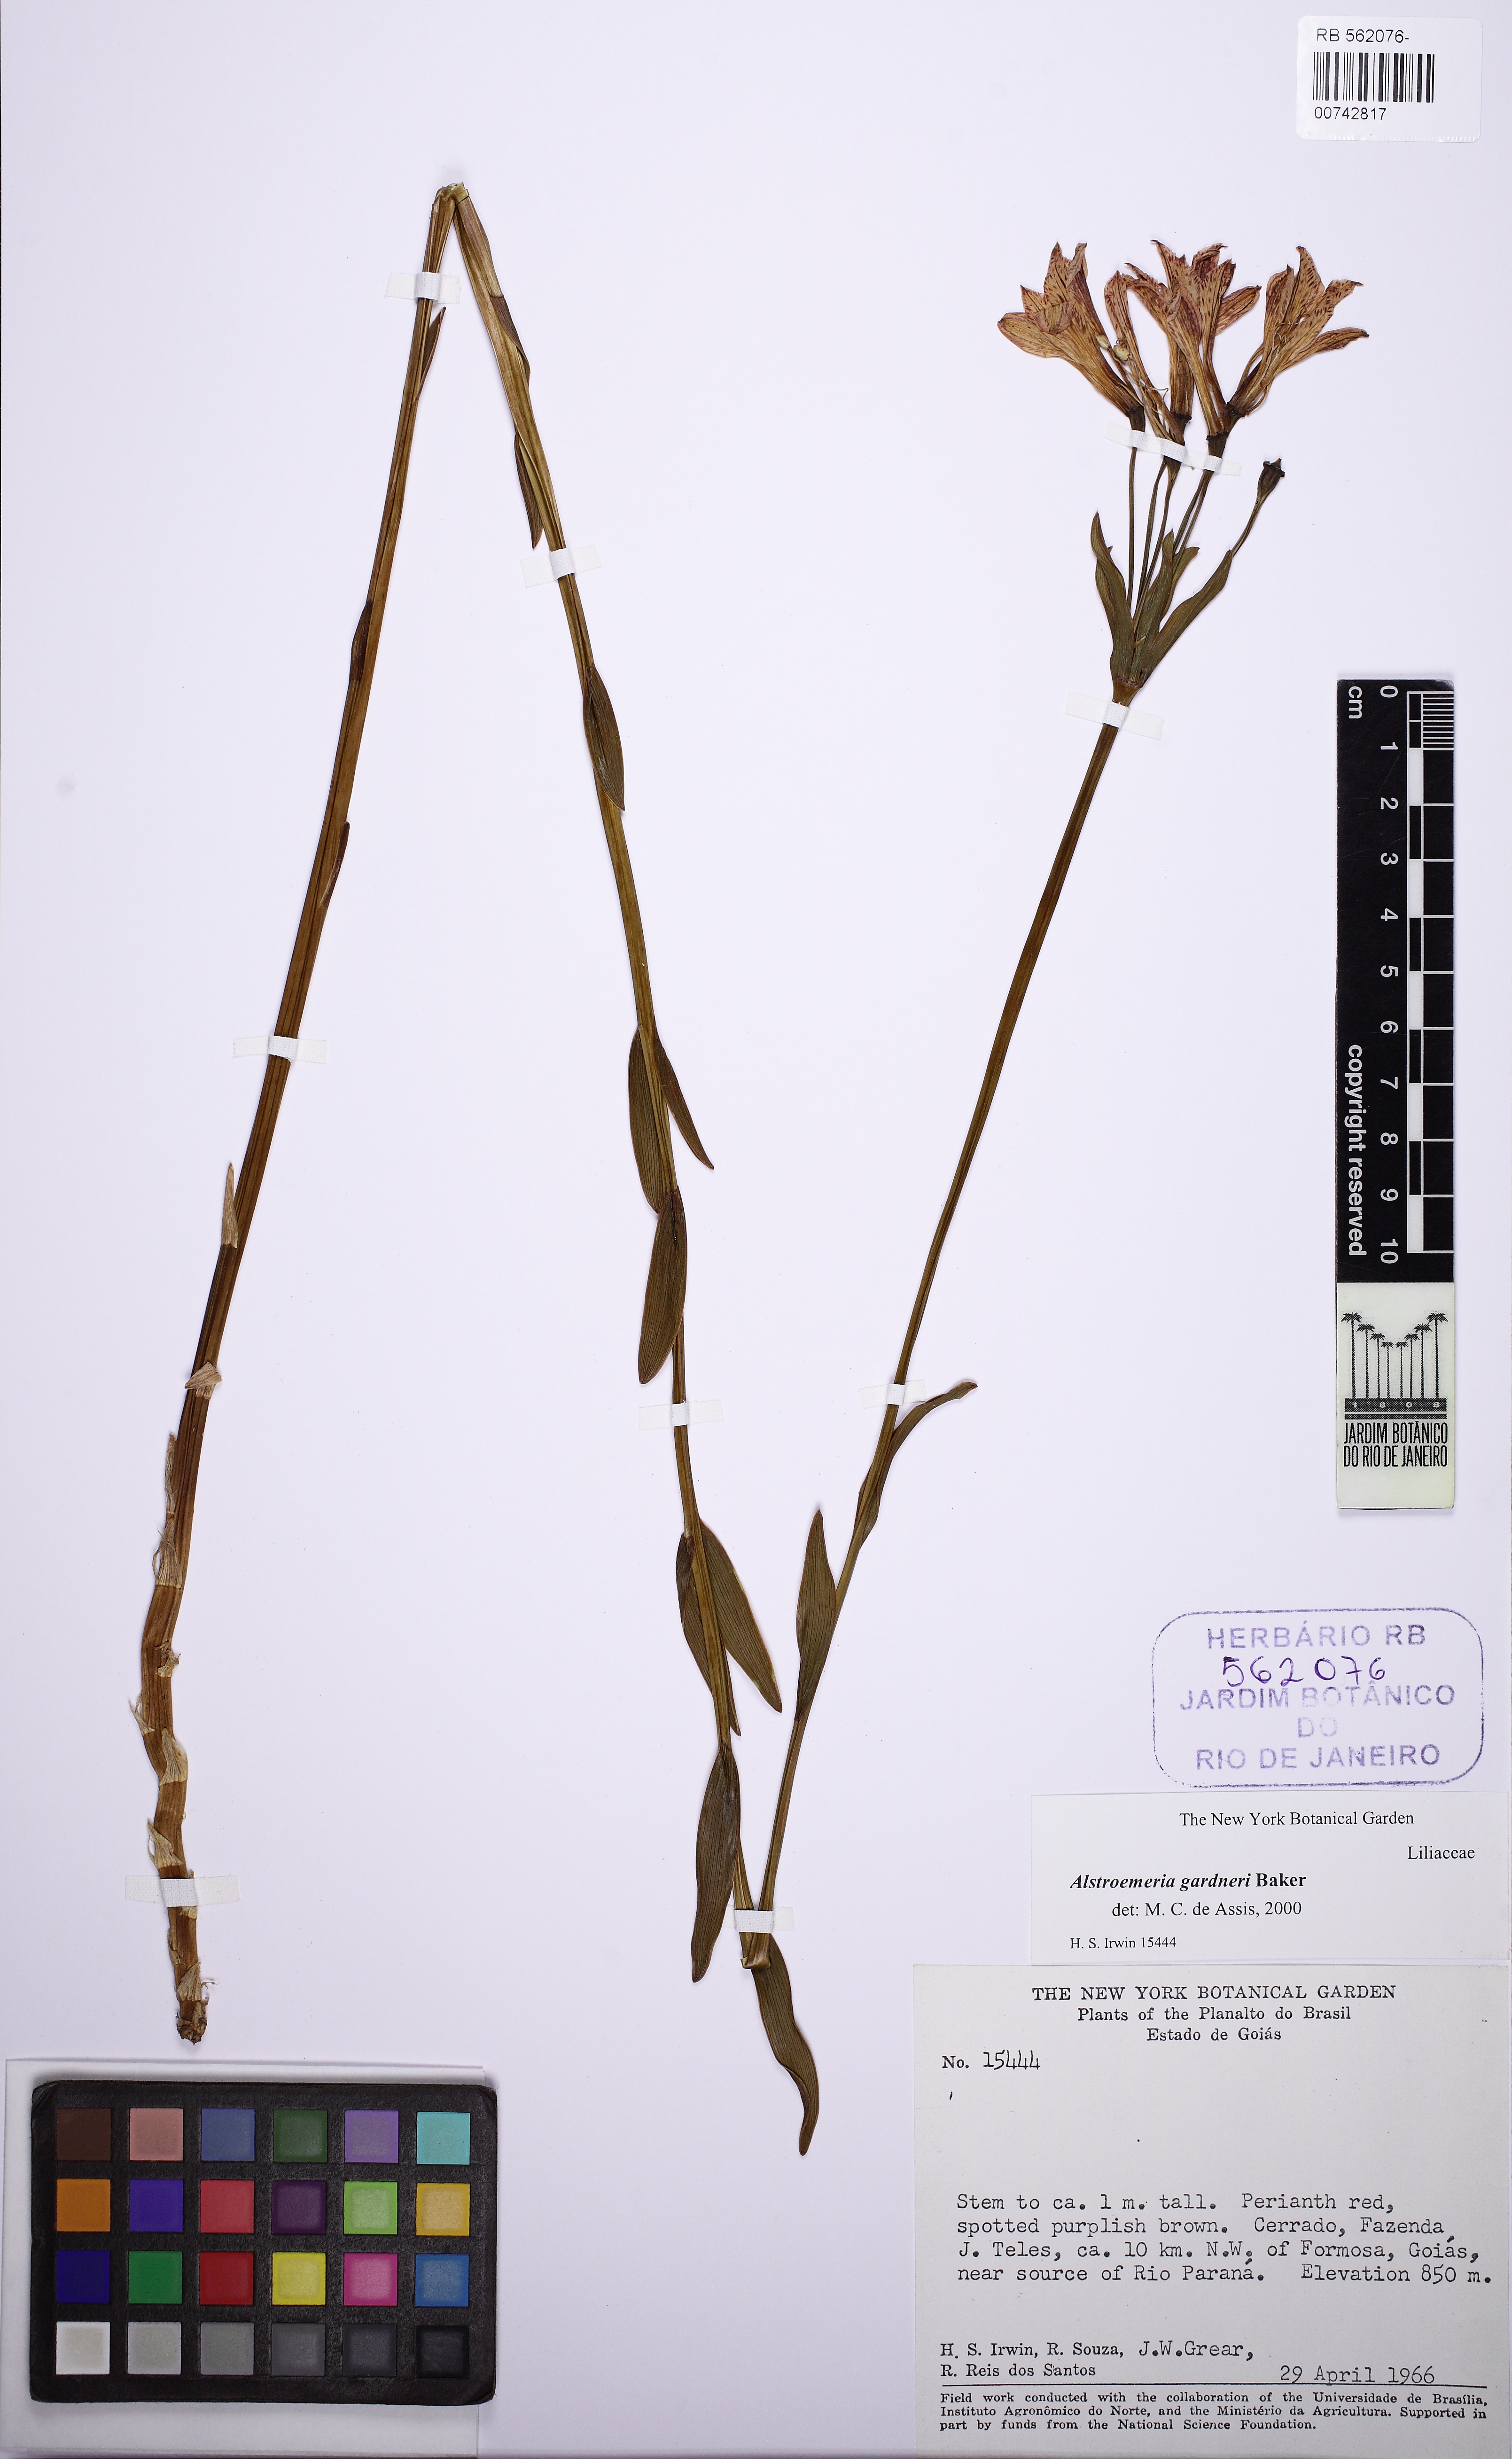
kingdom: Plantae
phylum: Tracheophyta
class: Liliopsida
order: Liliales
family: Alstroemeriaceae
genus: Alstroemeria
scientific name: Alstroemeria gardneri
